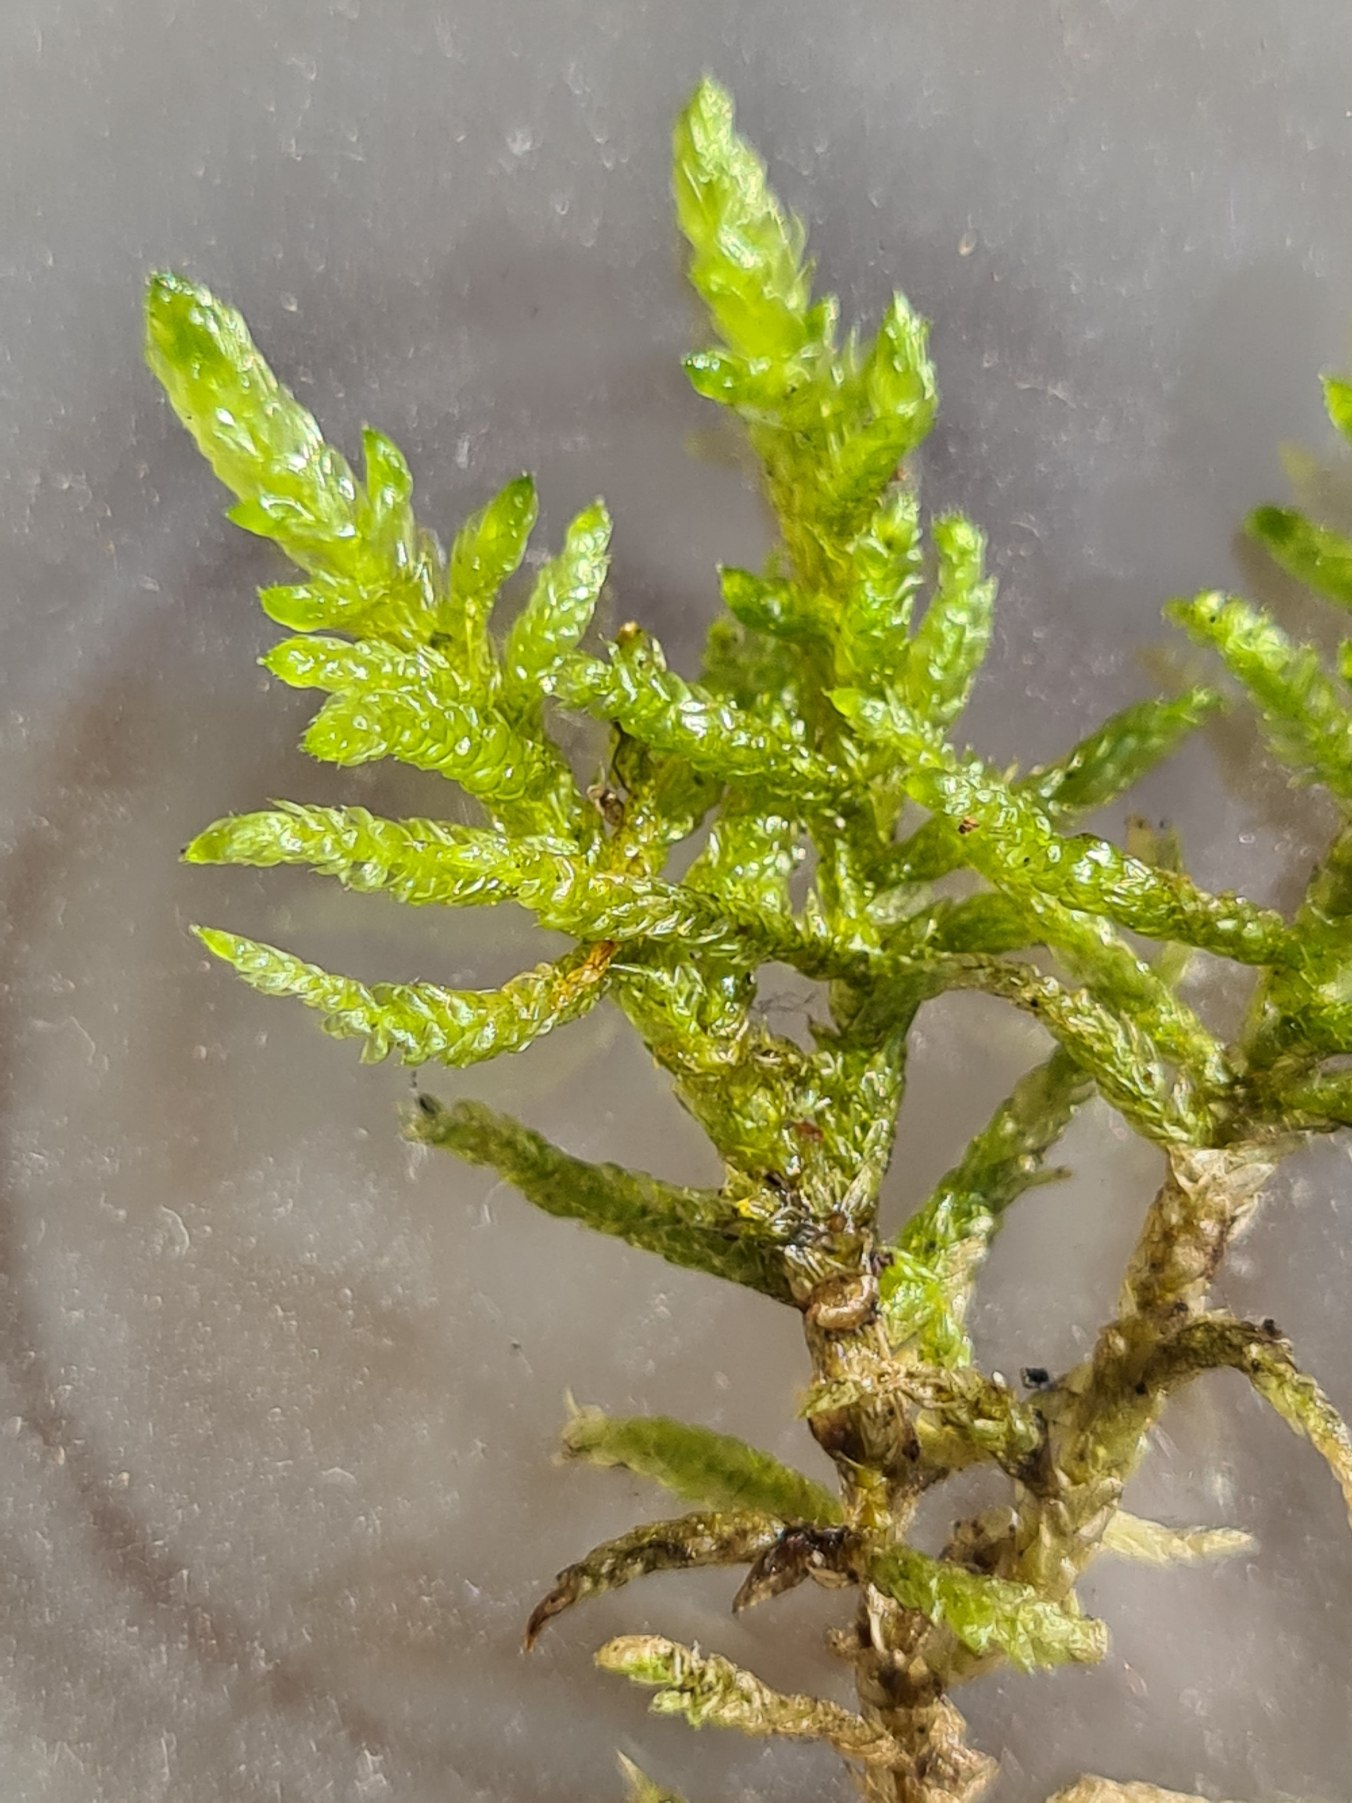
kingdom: Plantae
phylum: Bryophyta
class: Bryopsida
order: Hypnales
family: Brachytheciaceae
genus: Pseudoscleropodium
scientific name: Pseudoscleropodium purum
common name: Hulbladet fedtmos
